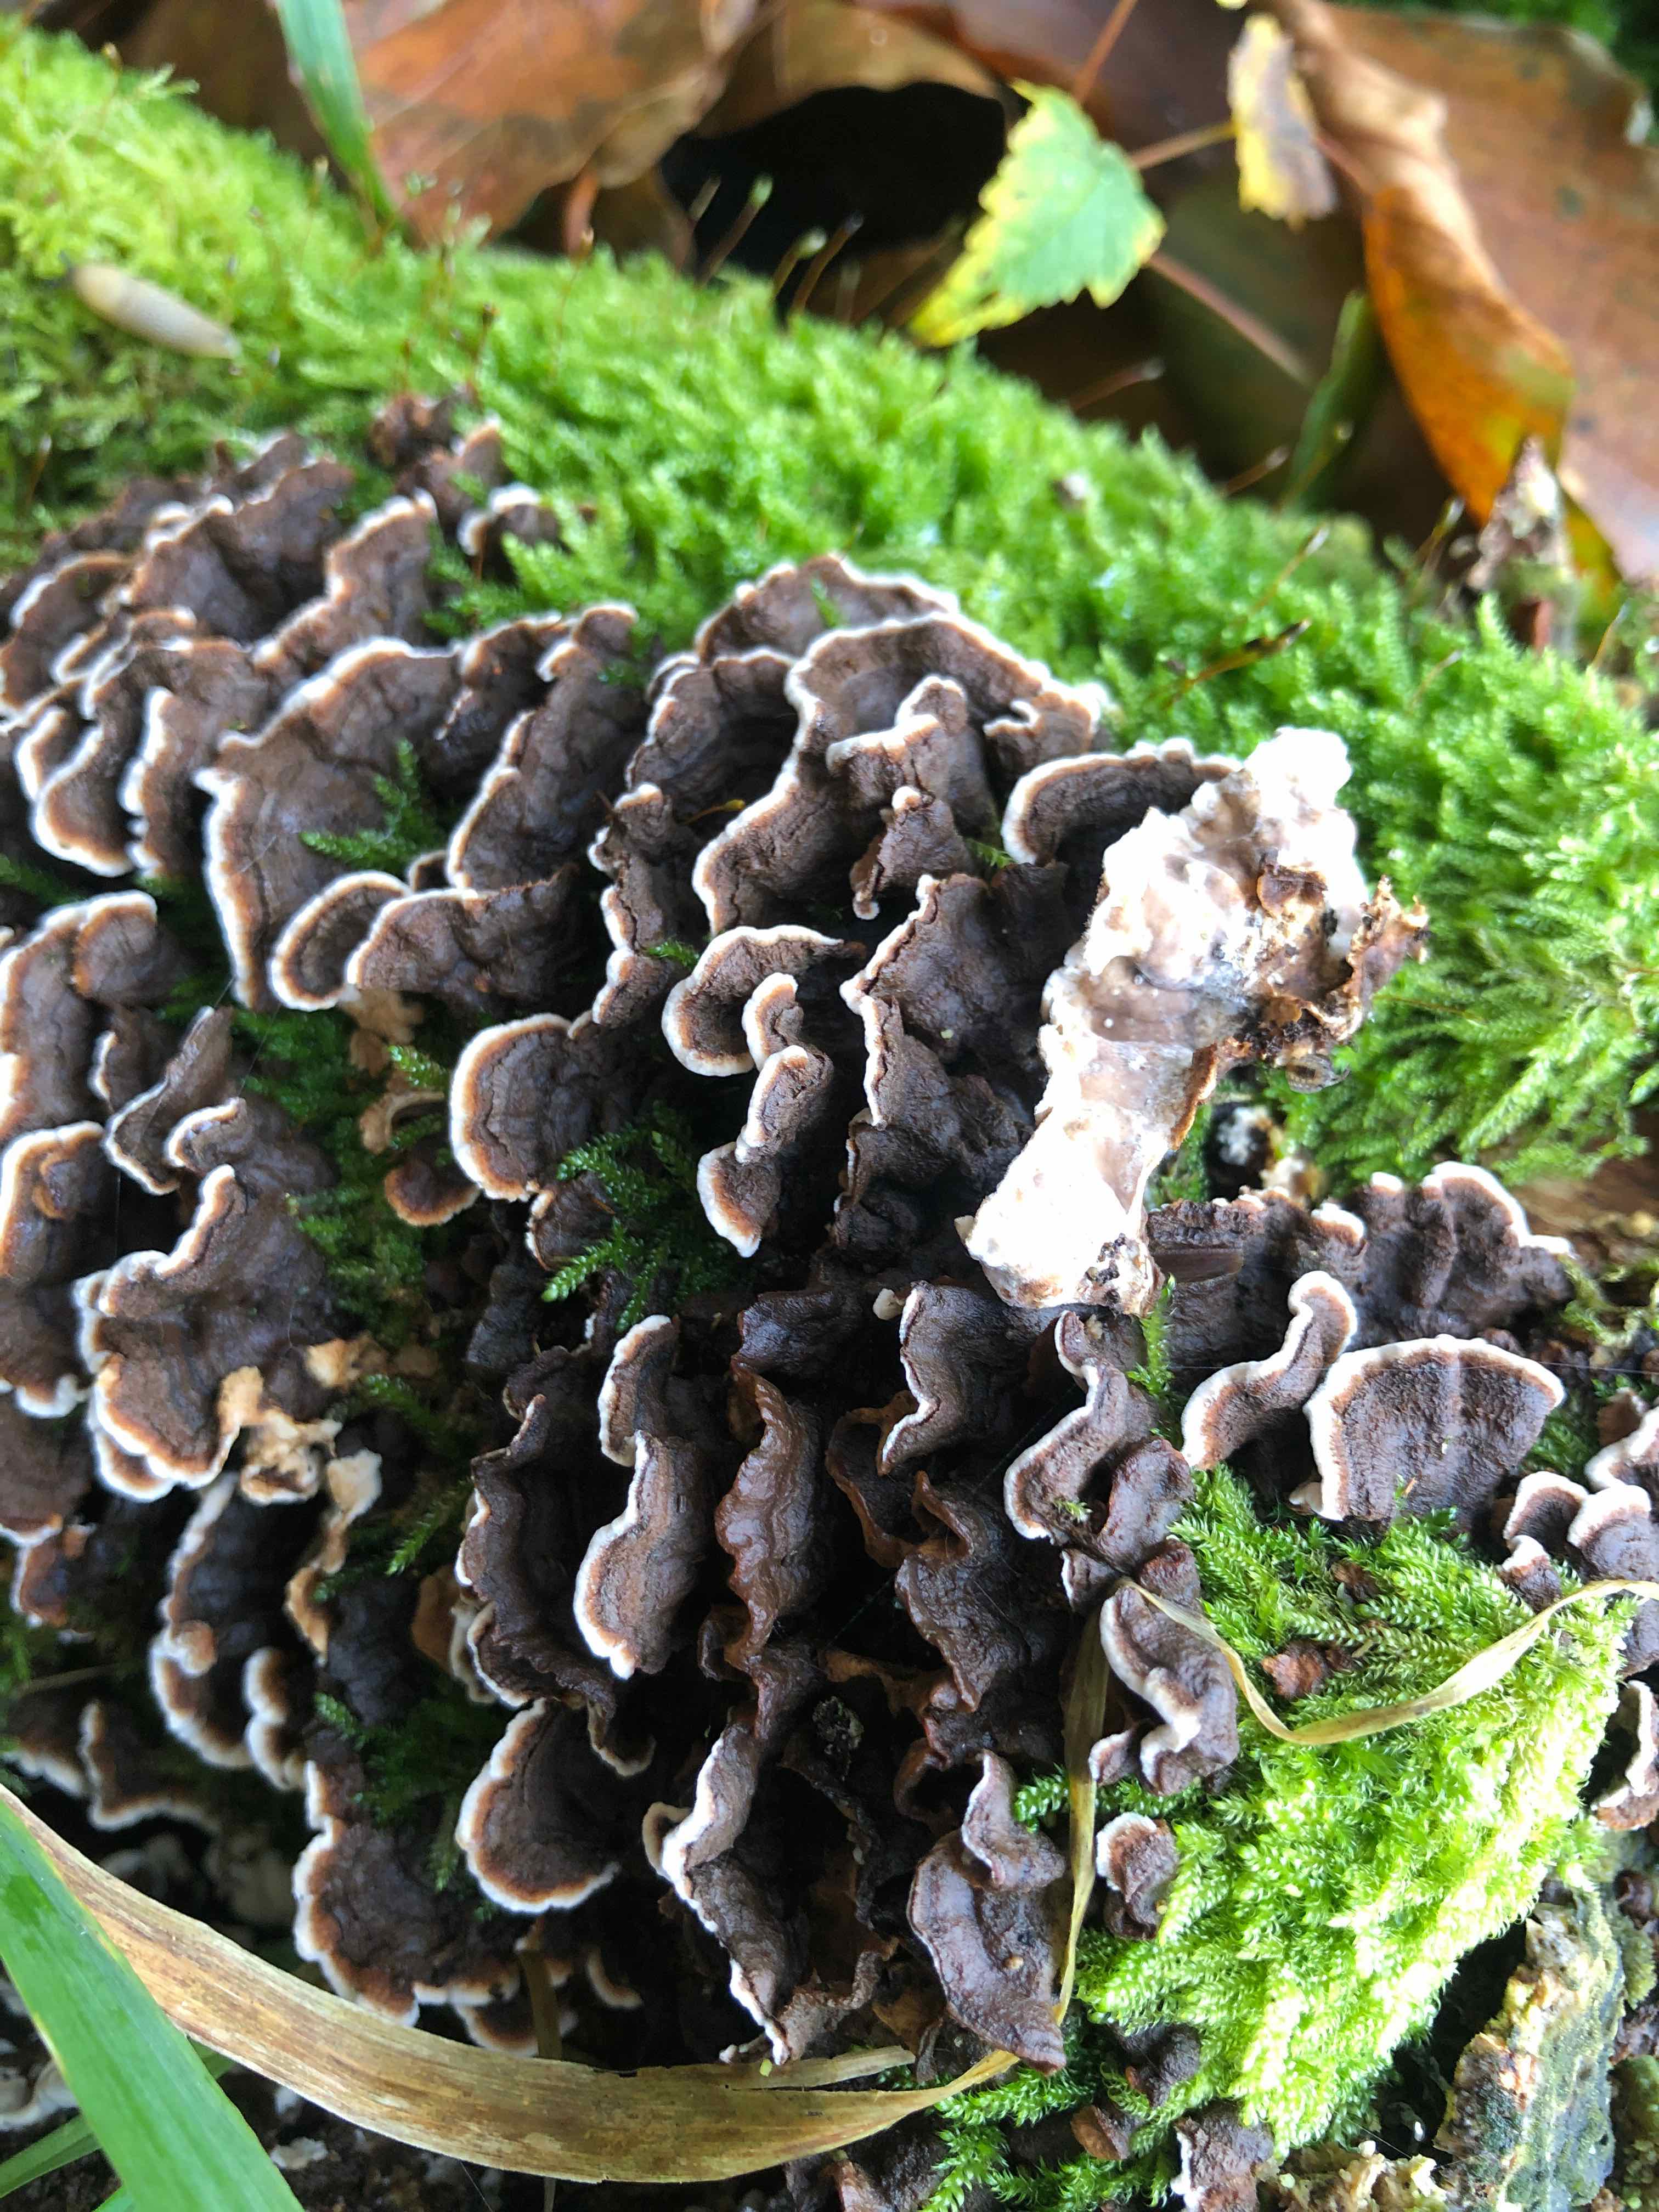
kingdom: Fungi
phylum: Basidiomycota
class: Agaricomycetes
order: Russulales
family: Hericiaceae
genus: Laxitextum
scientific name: Laxitextum bicolor
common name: tvefarvet filtskind
